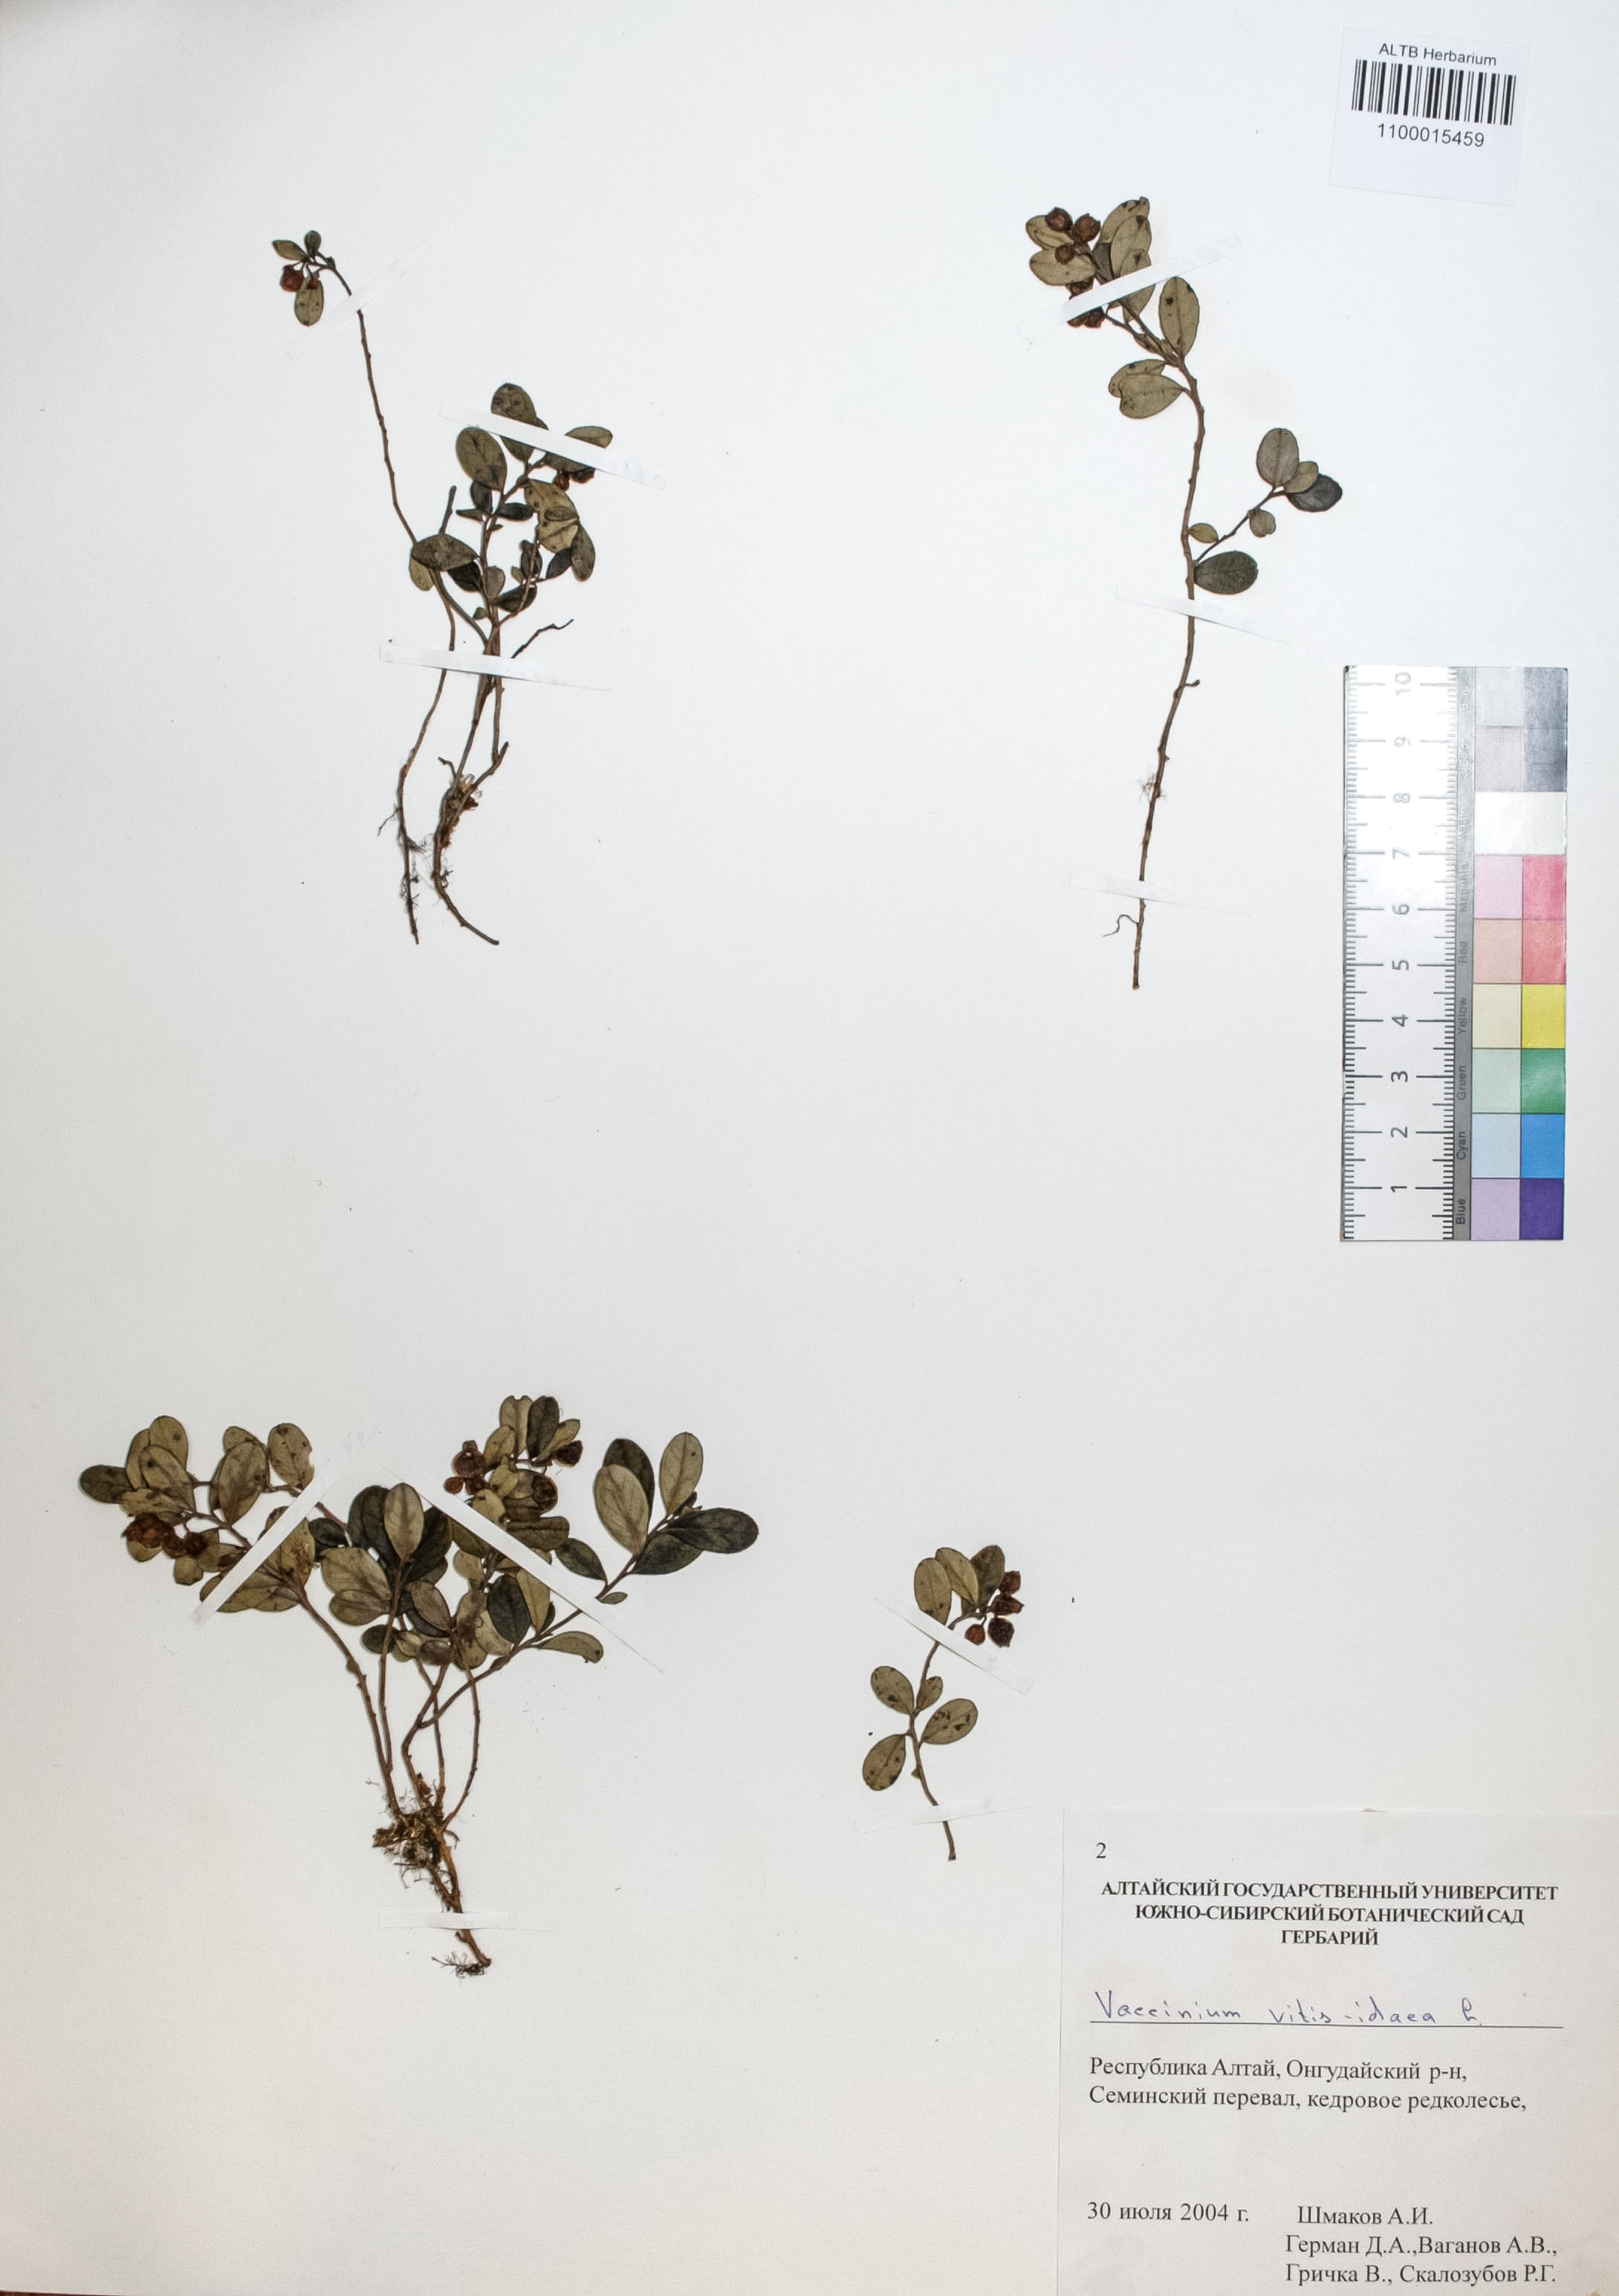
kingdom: Plantae
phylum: Tracheophyta
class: Magnoliopsida
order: Ericales
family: Ericaceae
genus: Vaccinium
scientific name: Vaccinium vitis-idaea
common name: Cowberry
